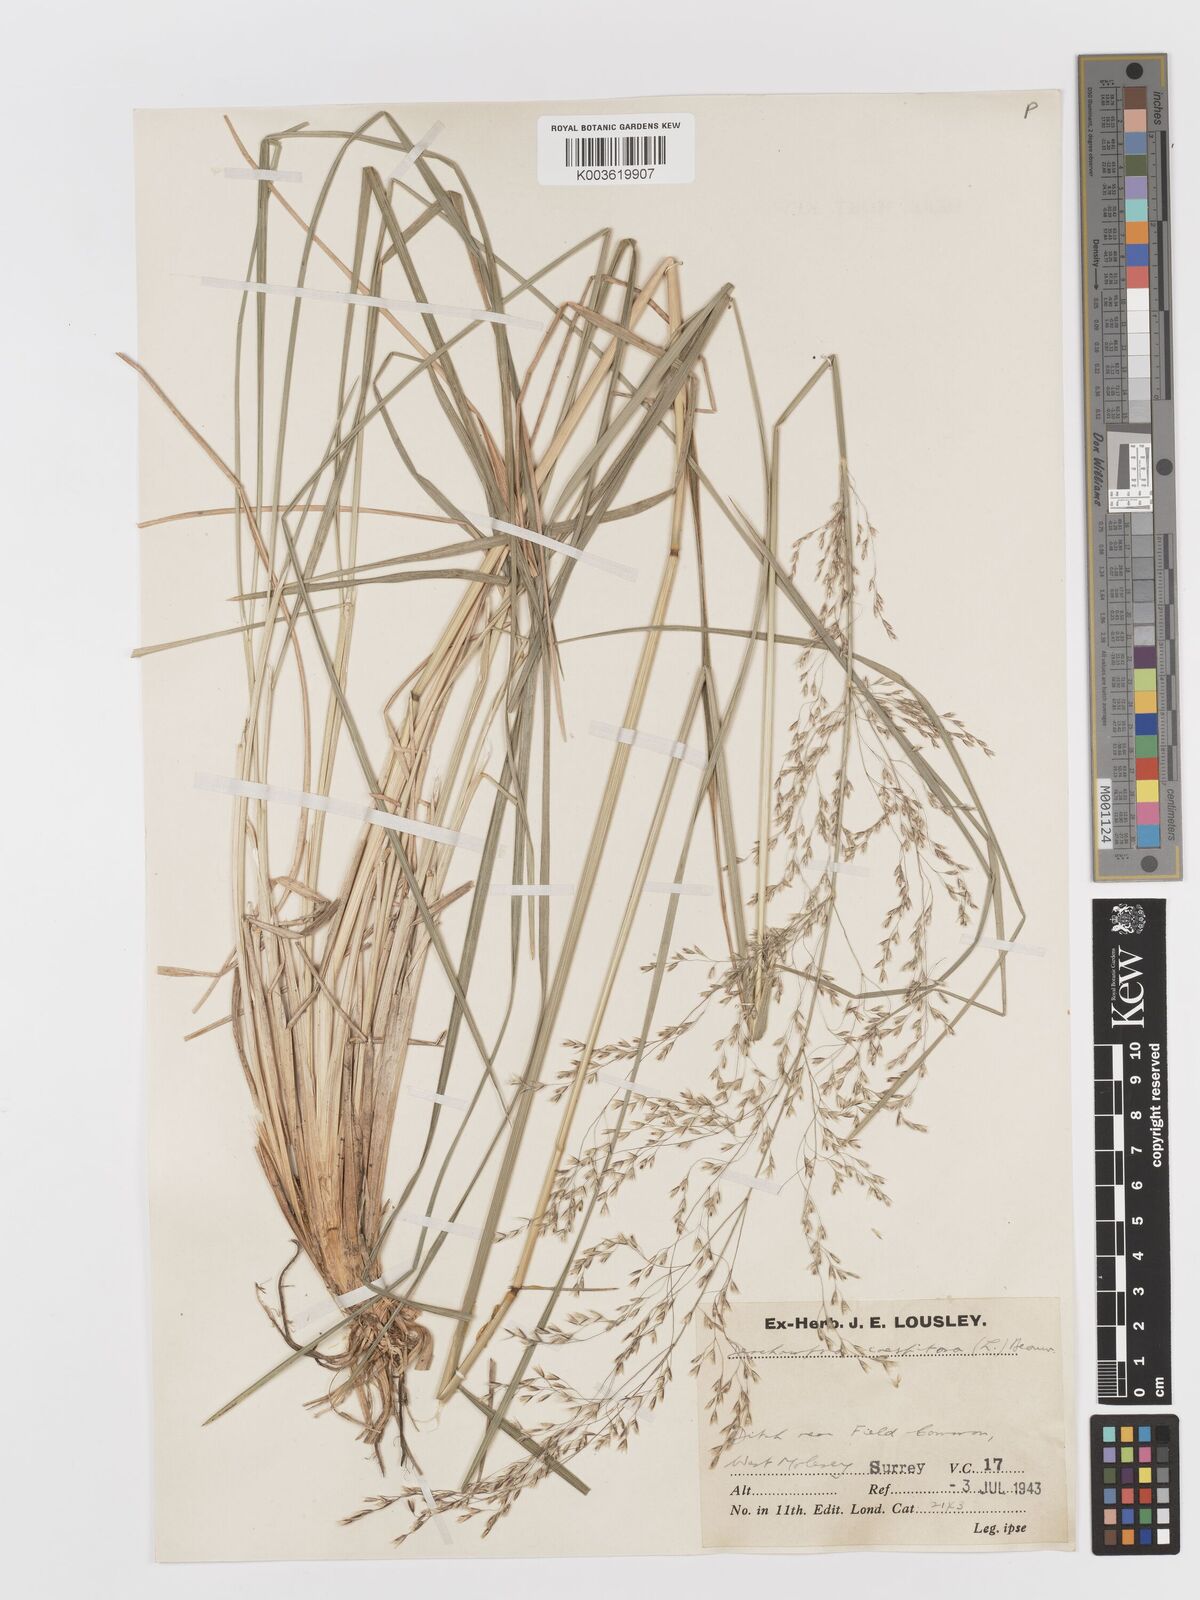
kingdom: Plantae
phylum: Tracheophyta
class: Liliopsida
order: Poales
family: Poaceae
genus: Deschampsia
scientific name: Deschampsia
